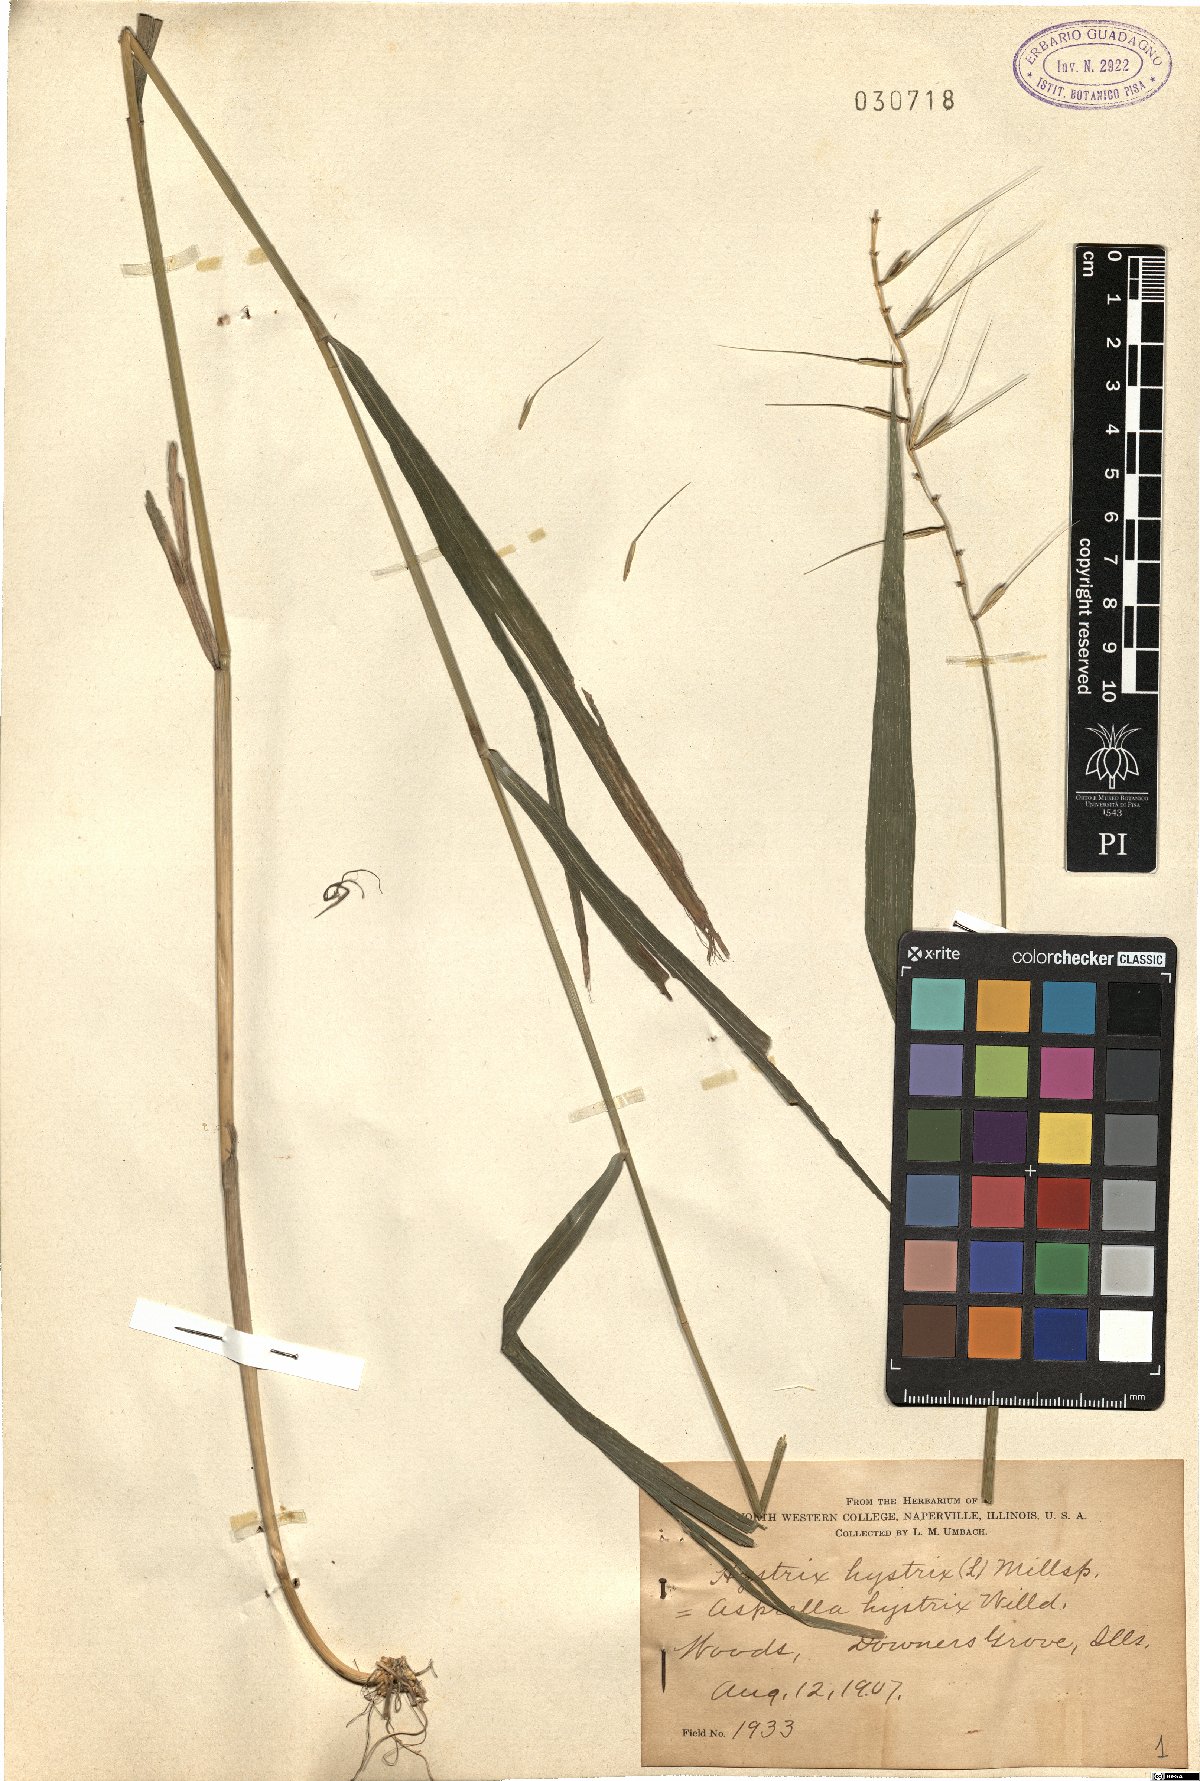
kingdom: Plantae
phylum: Tracheophyta
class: Liliopsida
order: Poales
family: Poaceae
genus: Elymus
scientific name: Elymus hystrix
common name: Bottlebrush grass
